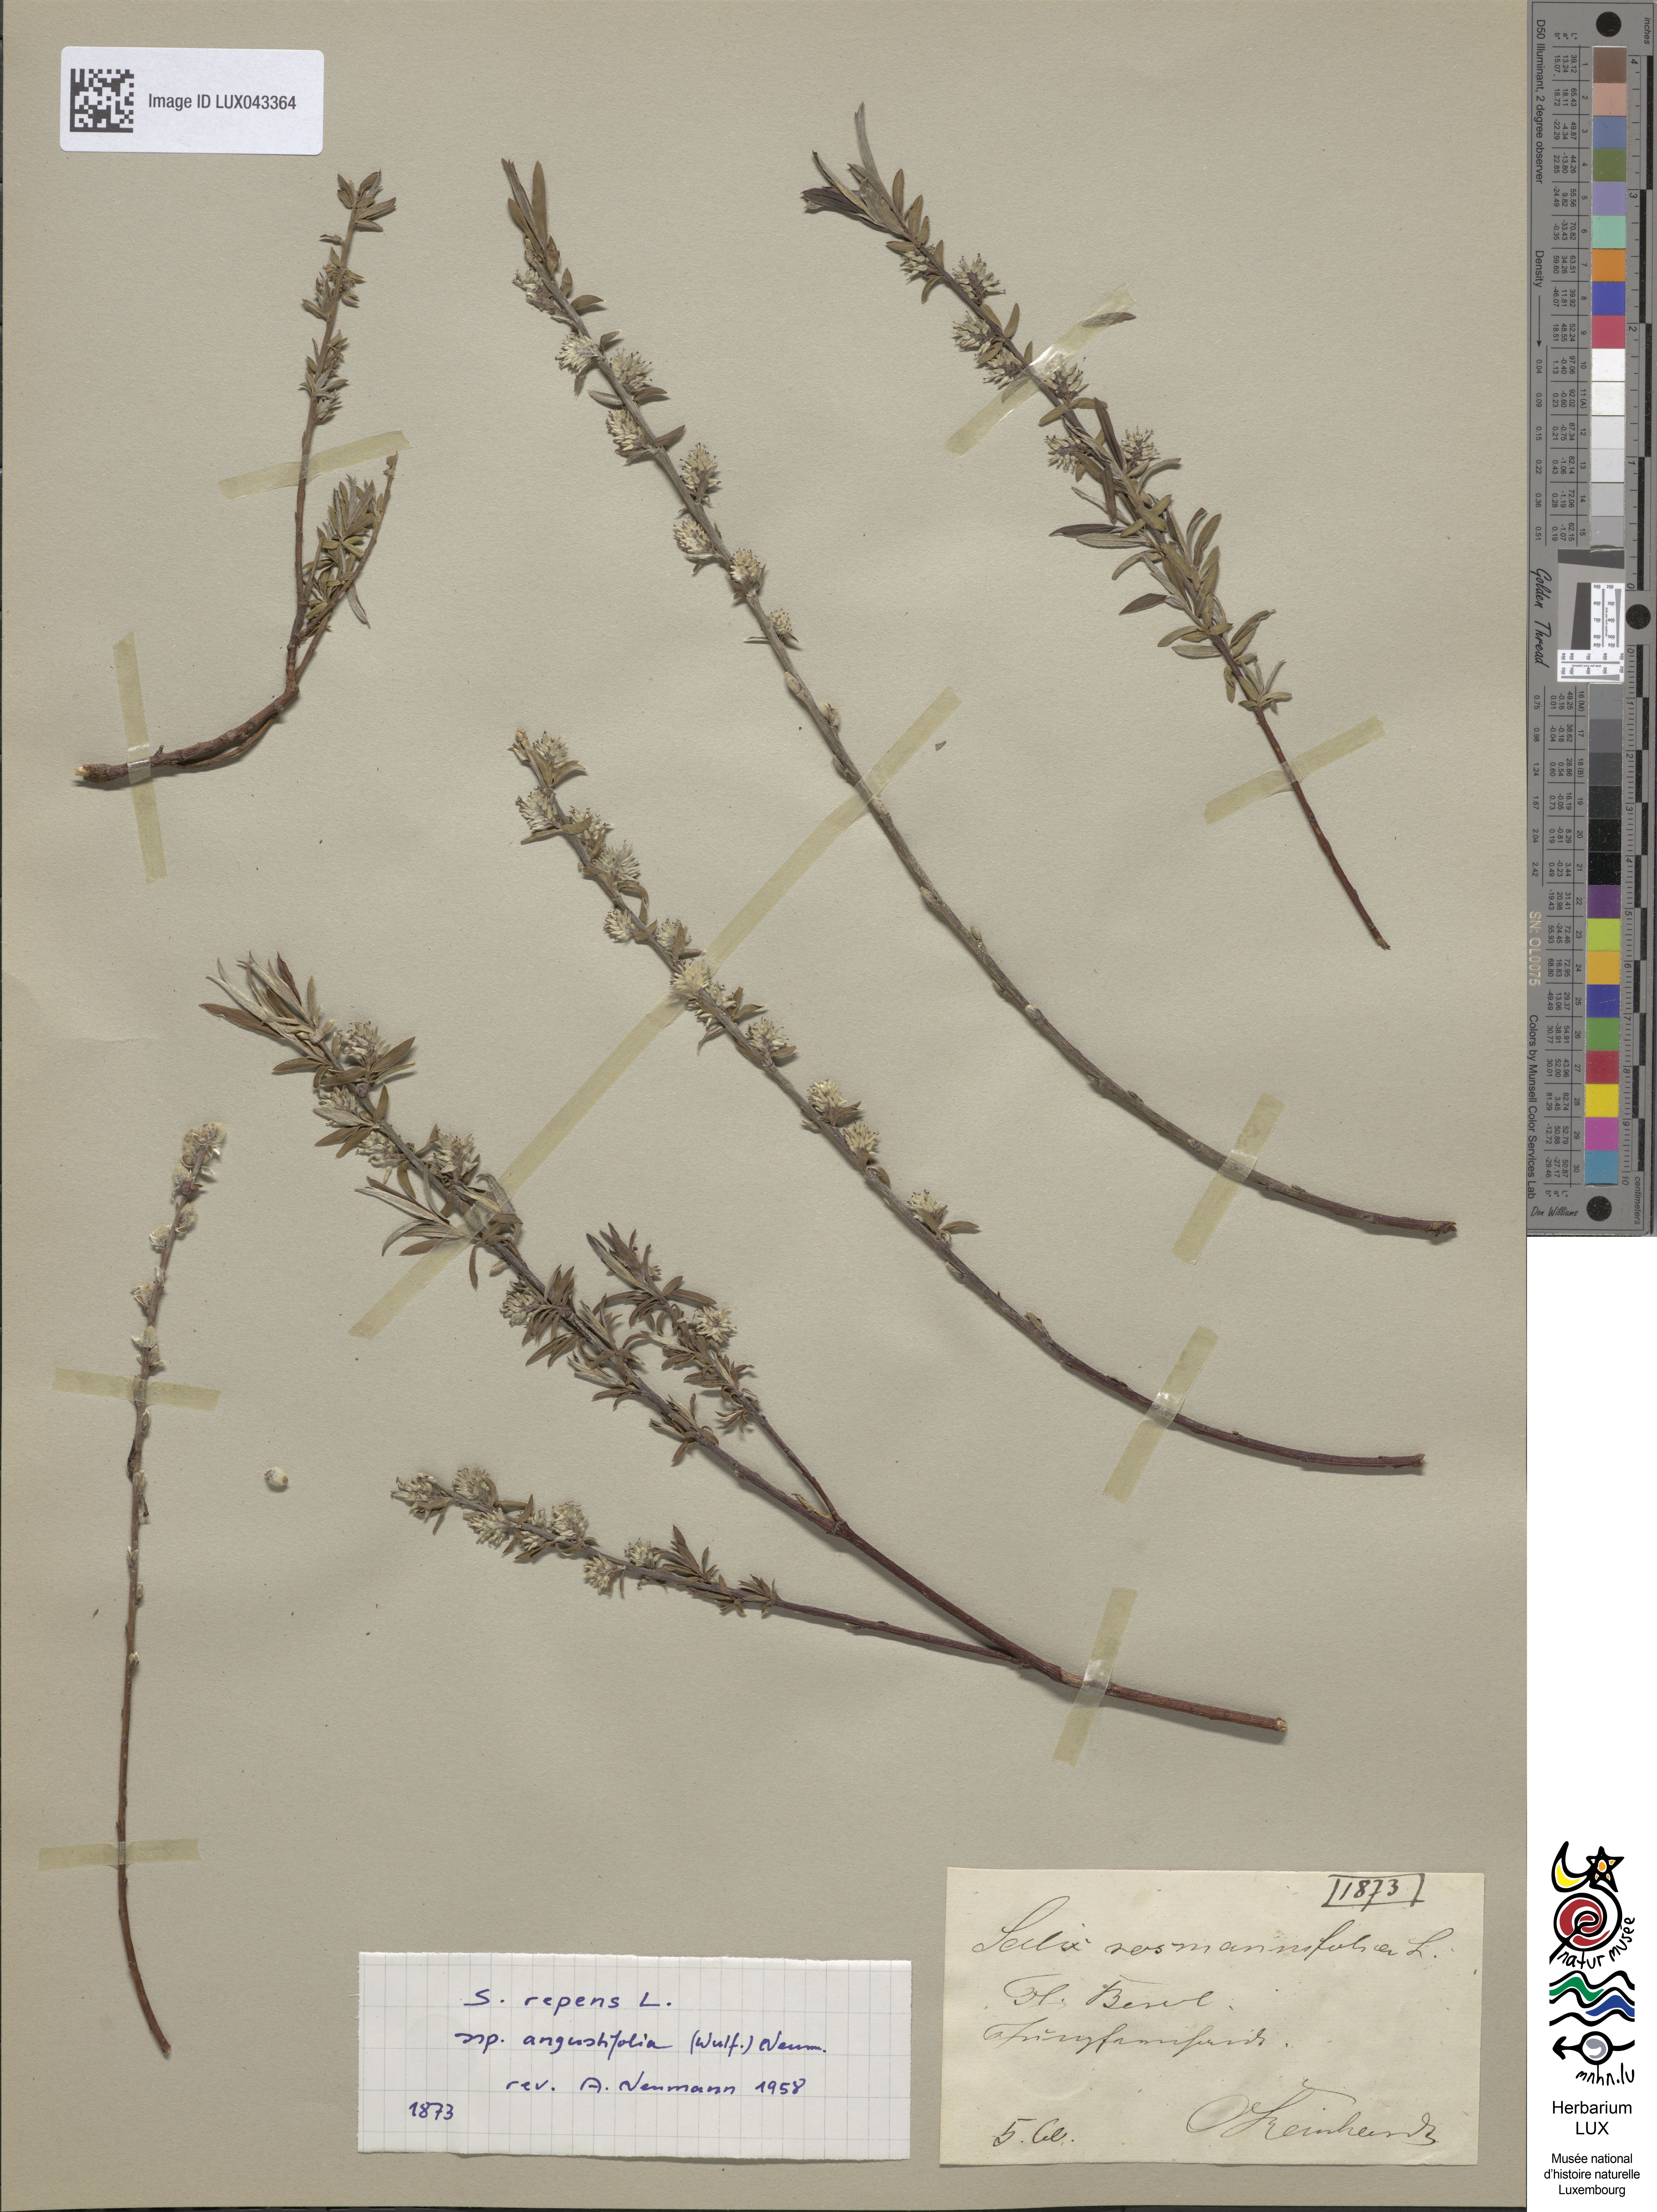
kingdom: Plantae
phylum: Tracheophyta
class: Magnoliopsida
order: Malpighiales
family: Salicaceae
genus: Salix
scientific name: Salix rosmarinifolia
